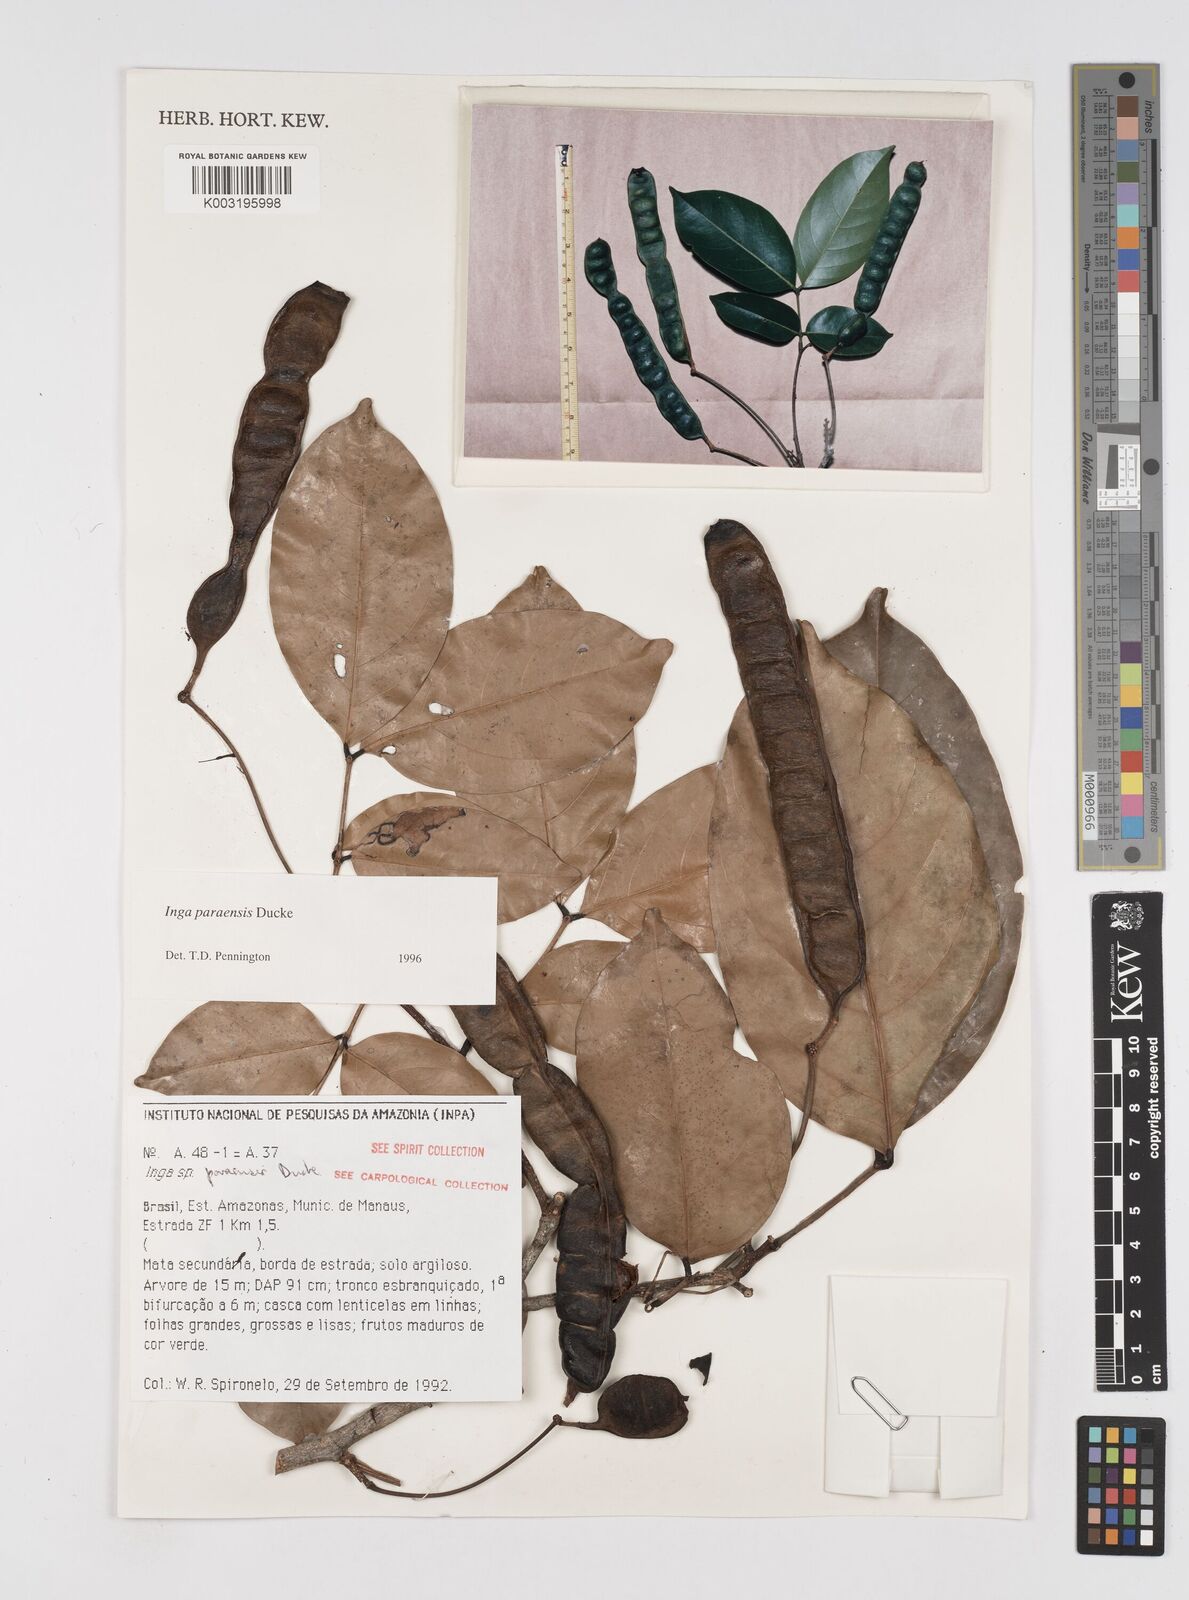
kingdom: Plantae
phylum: Tracheophyta
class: Magnoliopsida
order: Fabales
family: Fabaceae
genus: Inga
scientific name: Inga paraensis
